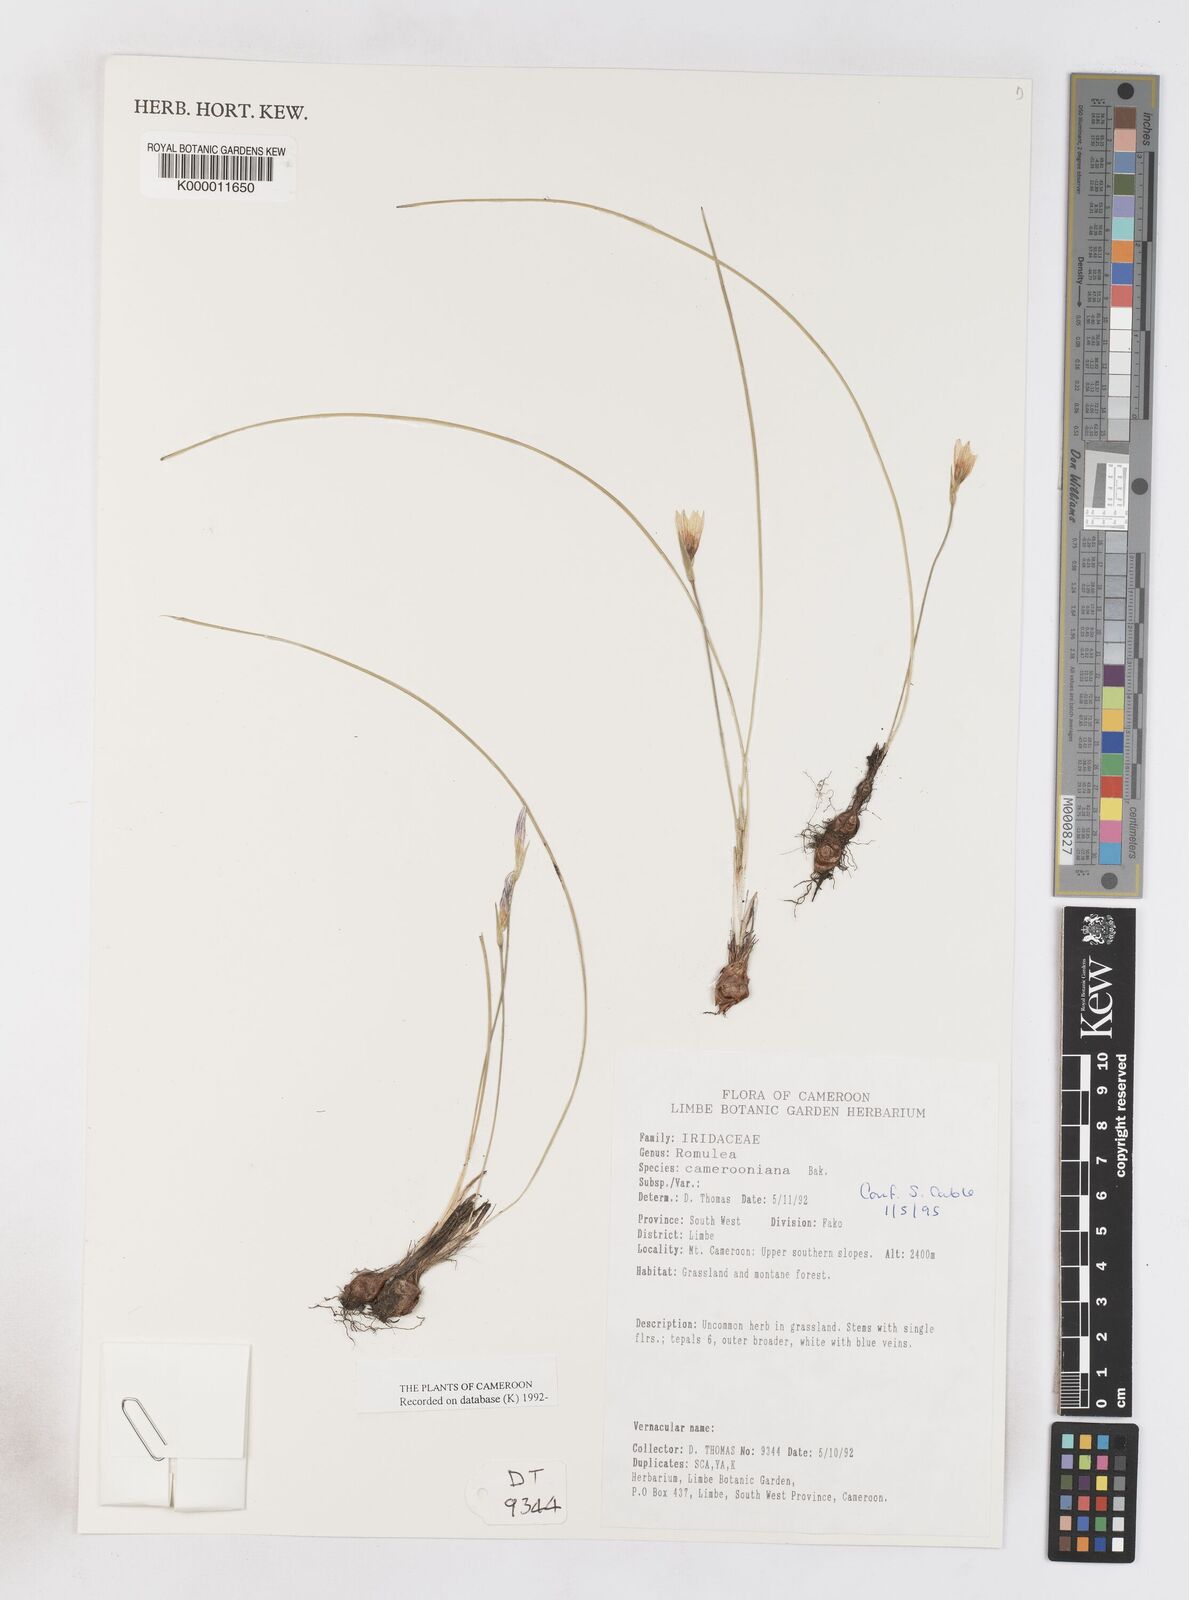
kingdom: Plantae
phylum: Tracheophyta
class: Liliopsida
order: Asparagales
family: Iridaceae
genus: Romulea
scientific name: Romulea camerooniana
